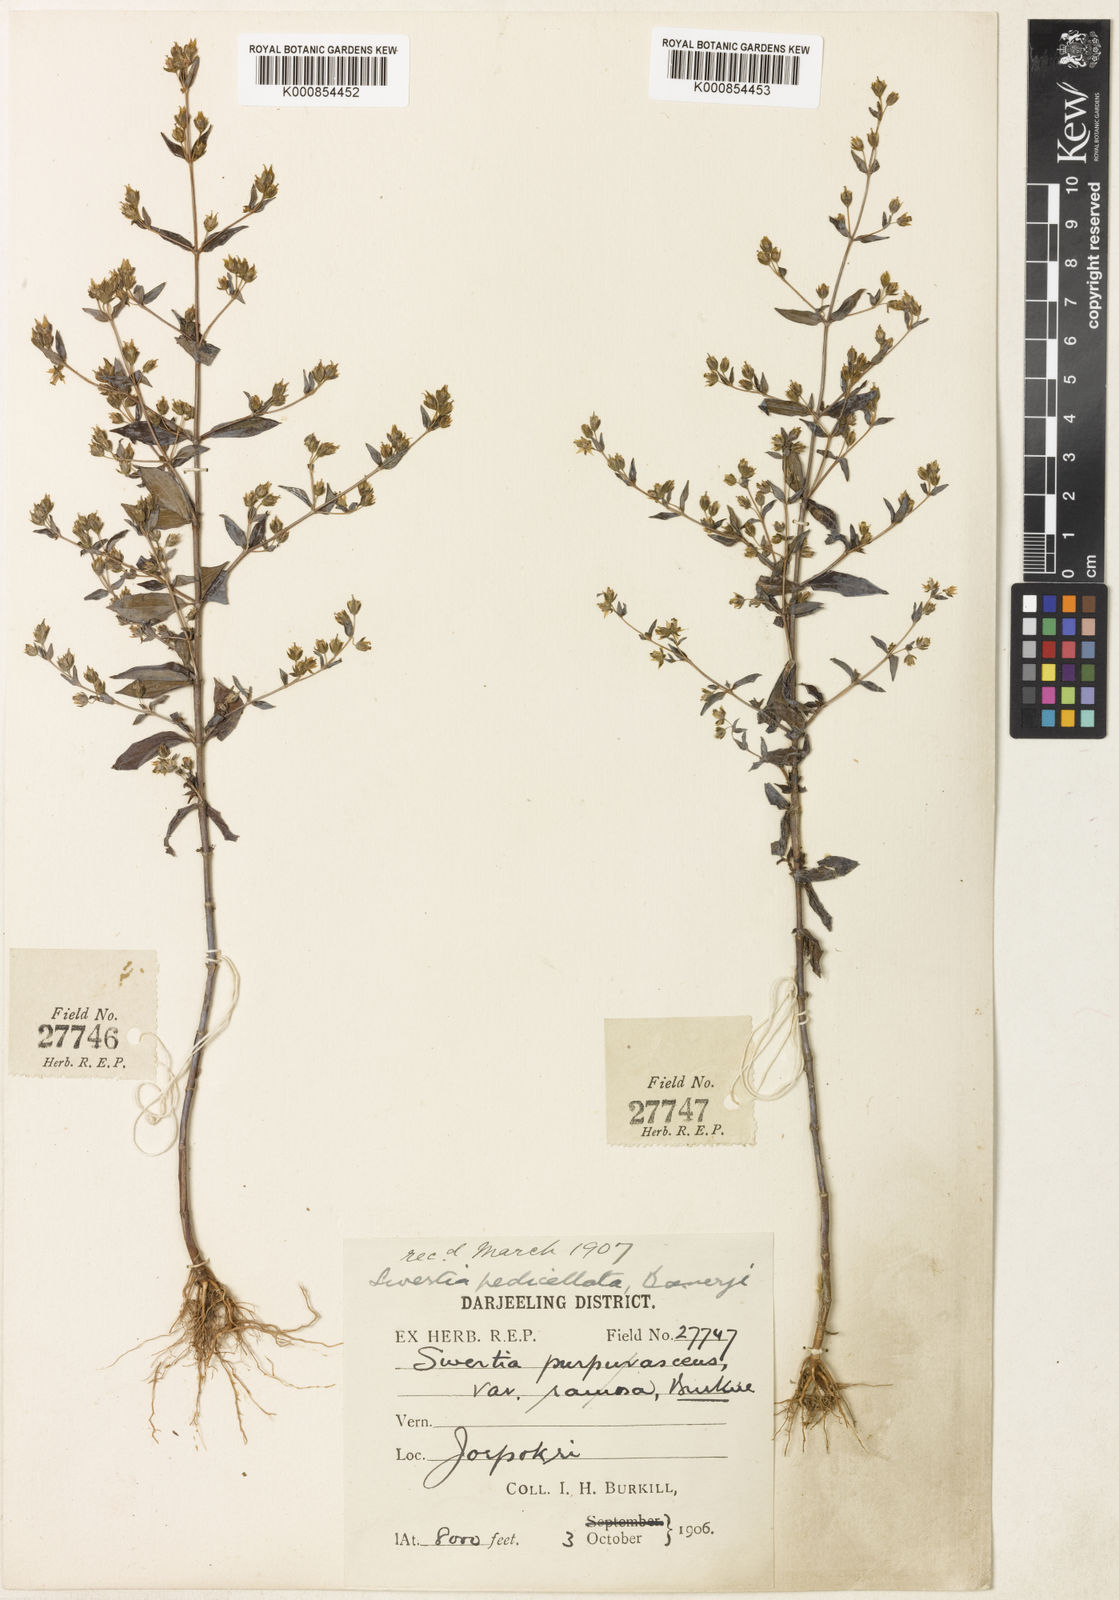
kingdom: Plantae
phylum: Tracheophyta
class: Magnoliopsida
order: Gentianales
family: Gentianaceae
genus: Swertia
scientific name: Swertia purpurascens
